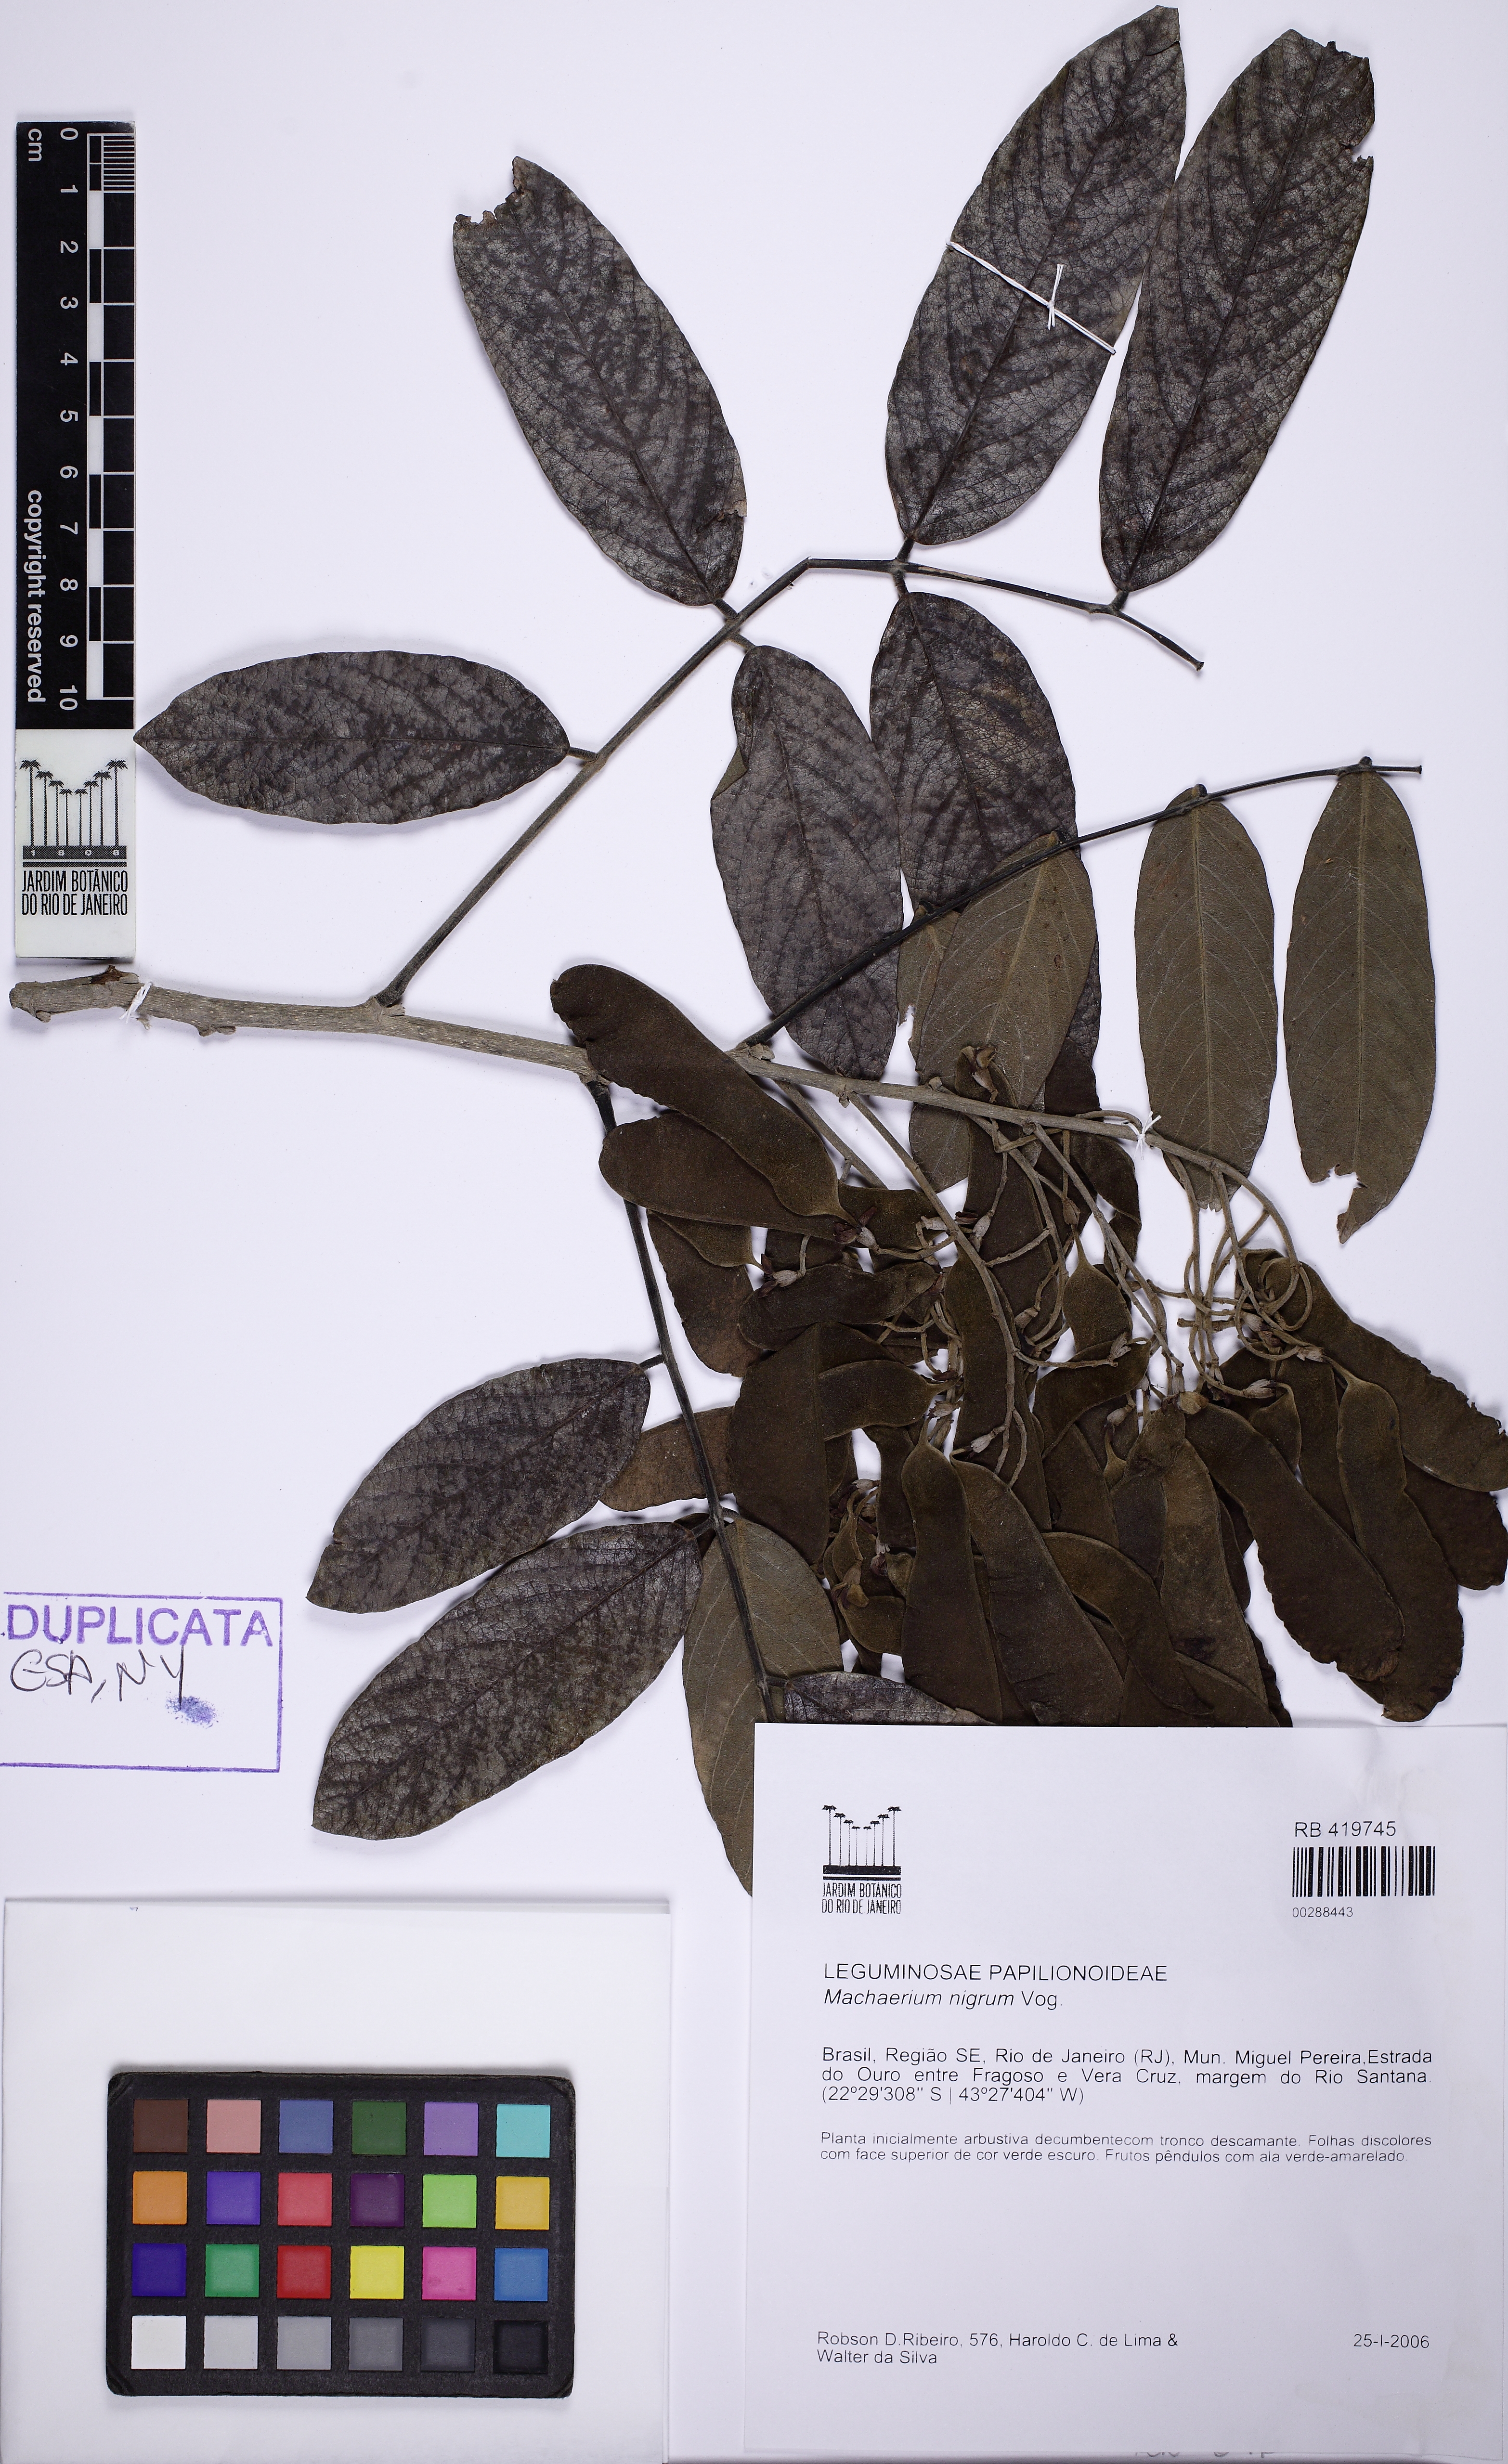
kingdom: Plantae
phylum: Tracheophyta
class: Magnoliopsida
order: Fabales
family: Fabaceae
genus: Machaerium
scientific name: Machaerium nigrum
